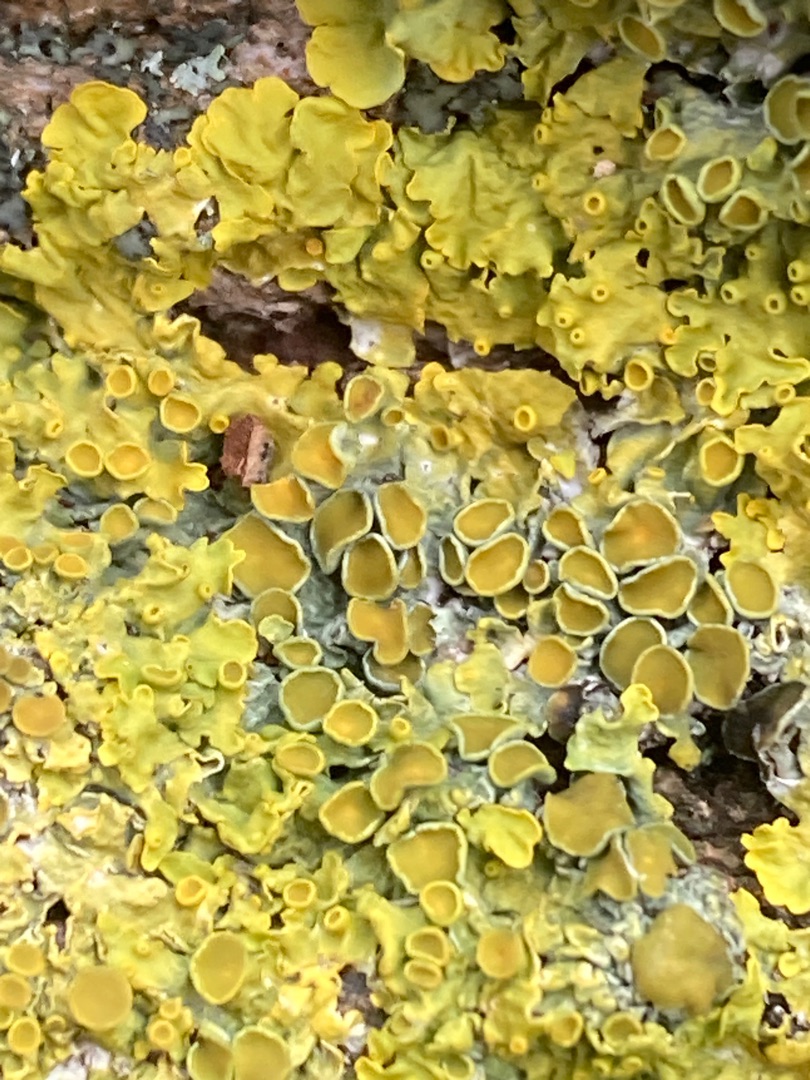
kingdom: Fungi
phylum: Ascomycota
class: Lecanoromycetes
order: Teloschistales
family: Teloschistaceae
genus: Xanthoria
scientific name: Xanthoria parietina
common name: Almindelig væggelav
